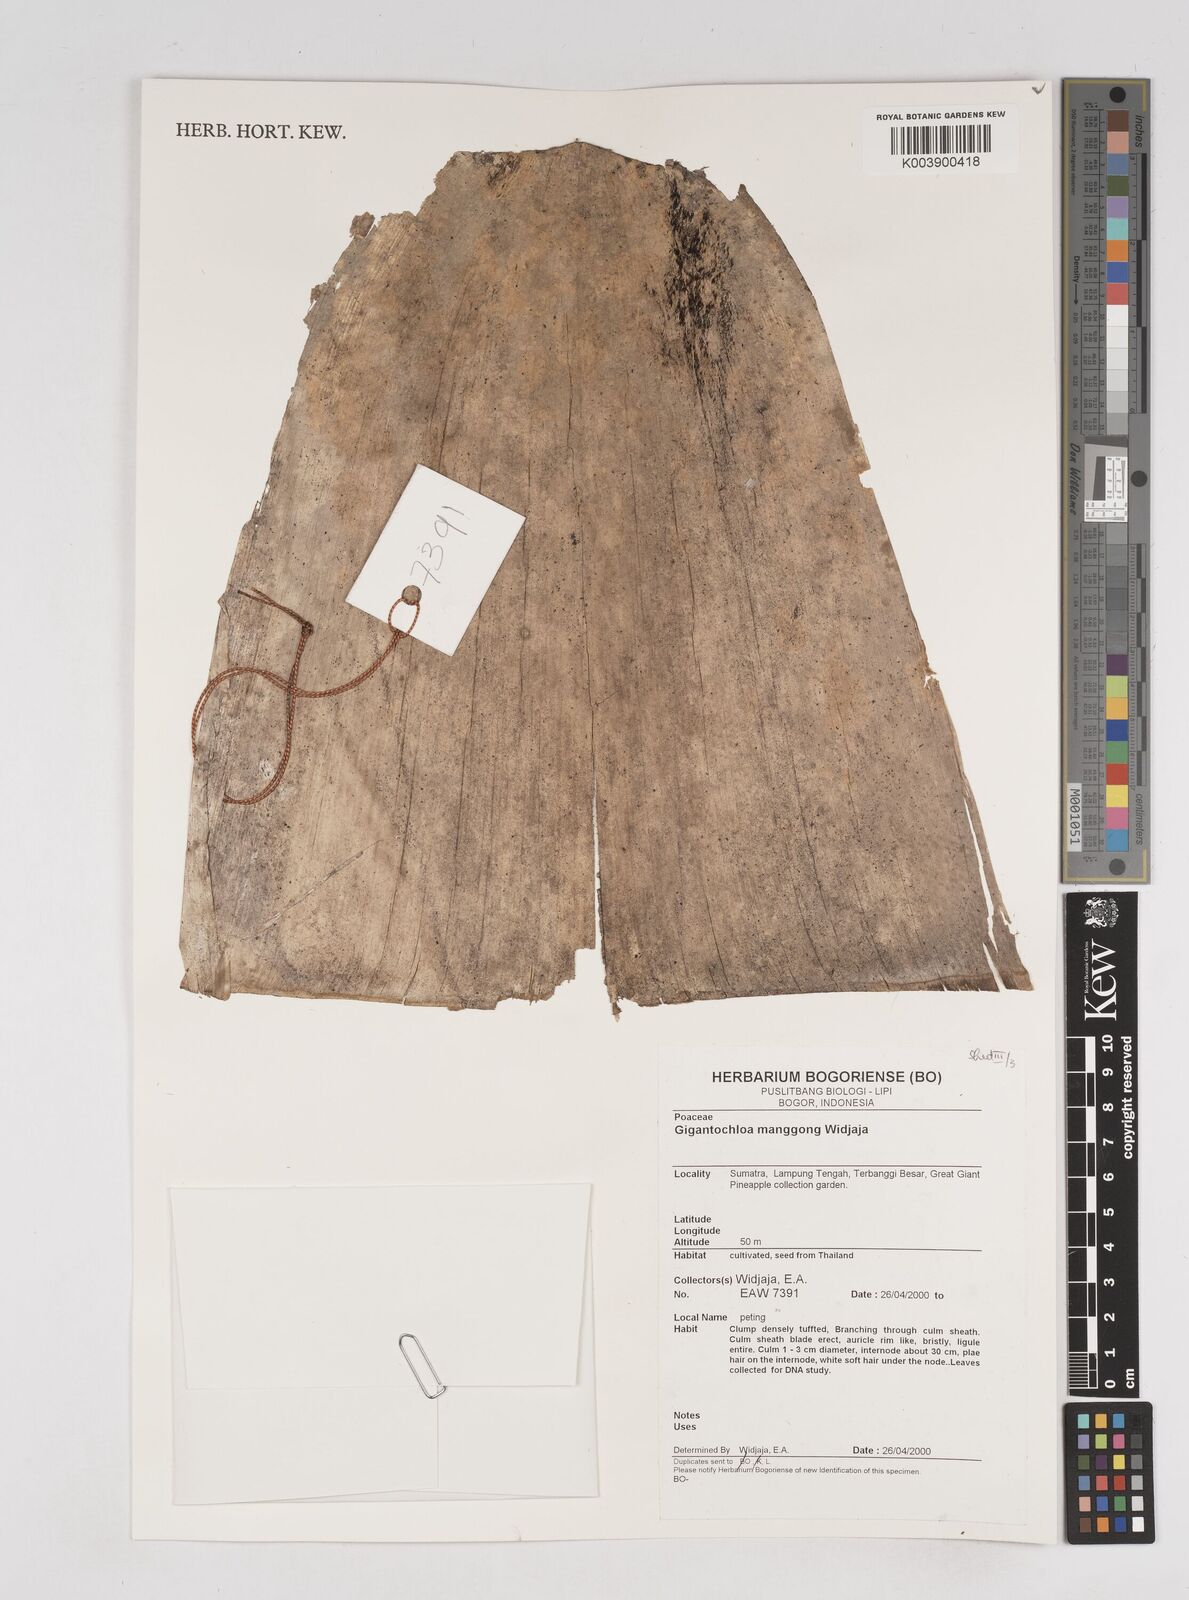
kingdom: Plantae
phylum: Tracheophyta
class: Liliopsida
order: Poales
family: Poaceae
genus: Gigantochloa
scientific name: Gigantochloa manggong
